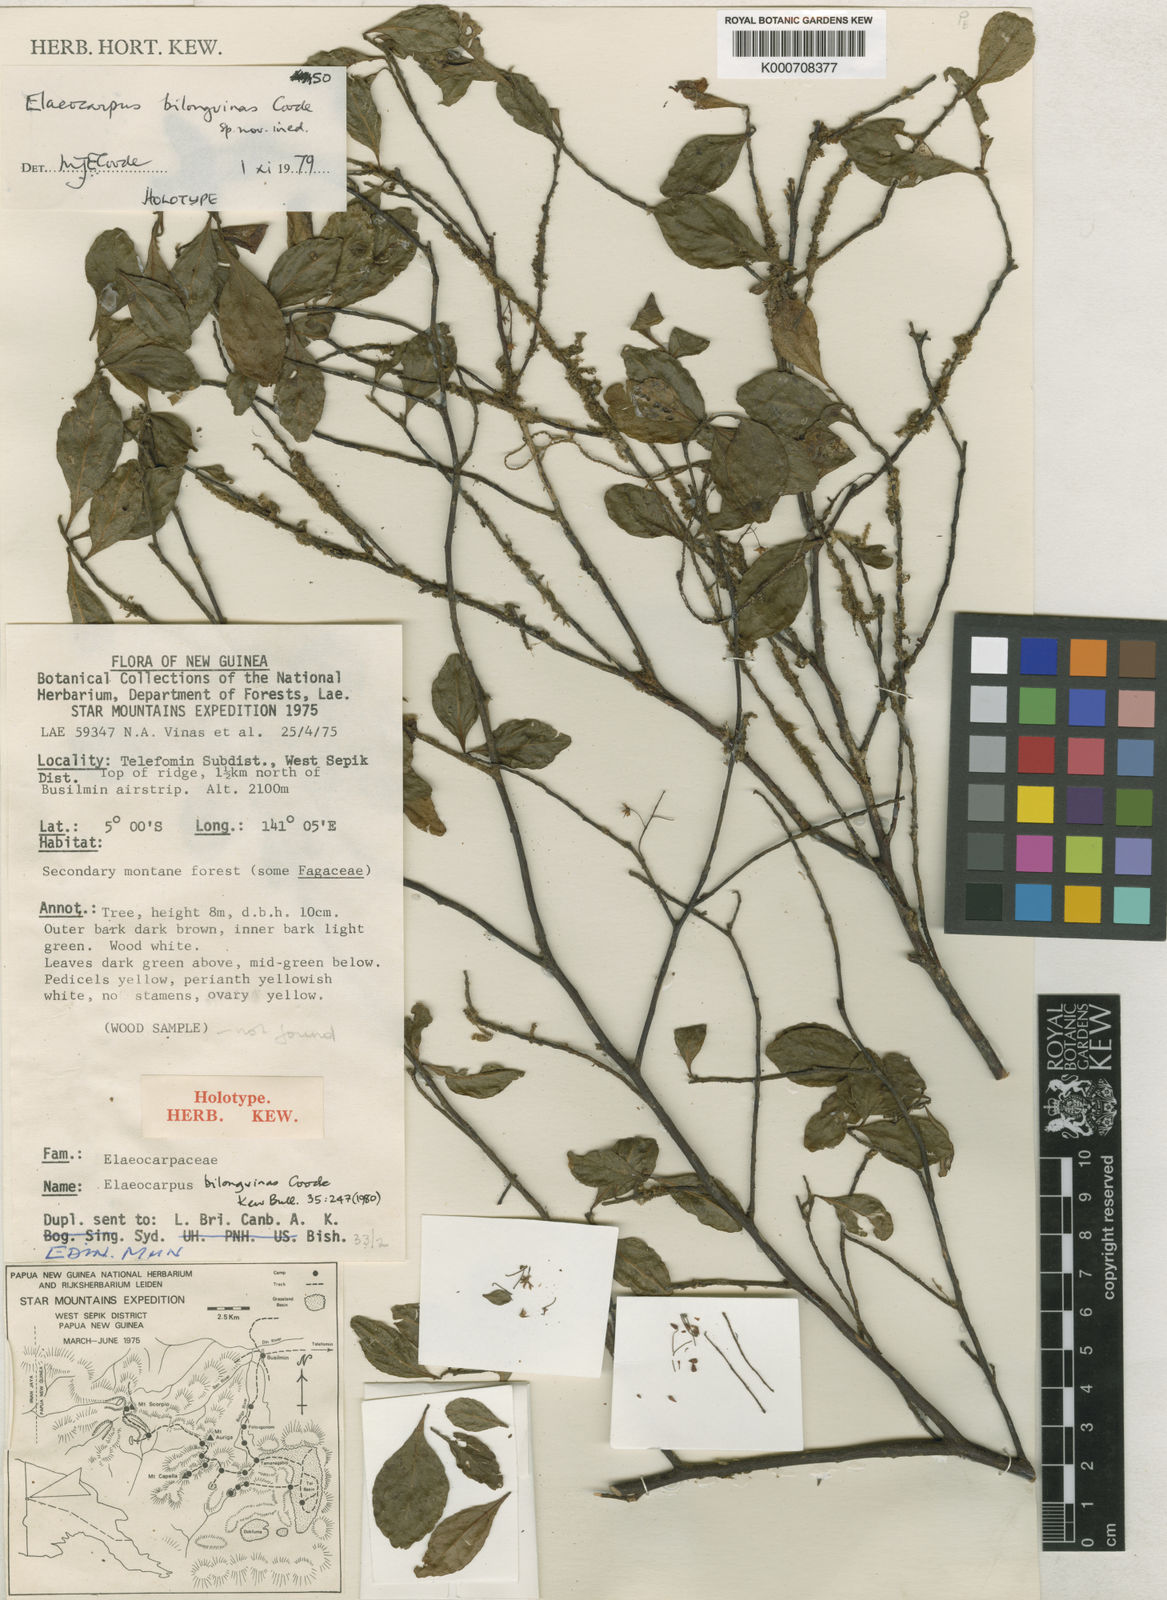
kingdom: Plantae
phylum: Tracheophyta
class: Magnoliopsida
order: Oxalidales
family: Elaeocarpaceae
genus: Elaeocarpus
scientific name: Elaeocarpus bilongvinas
